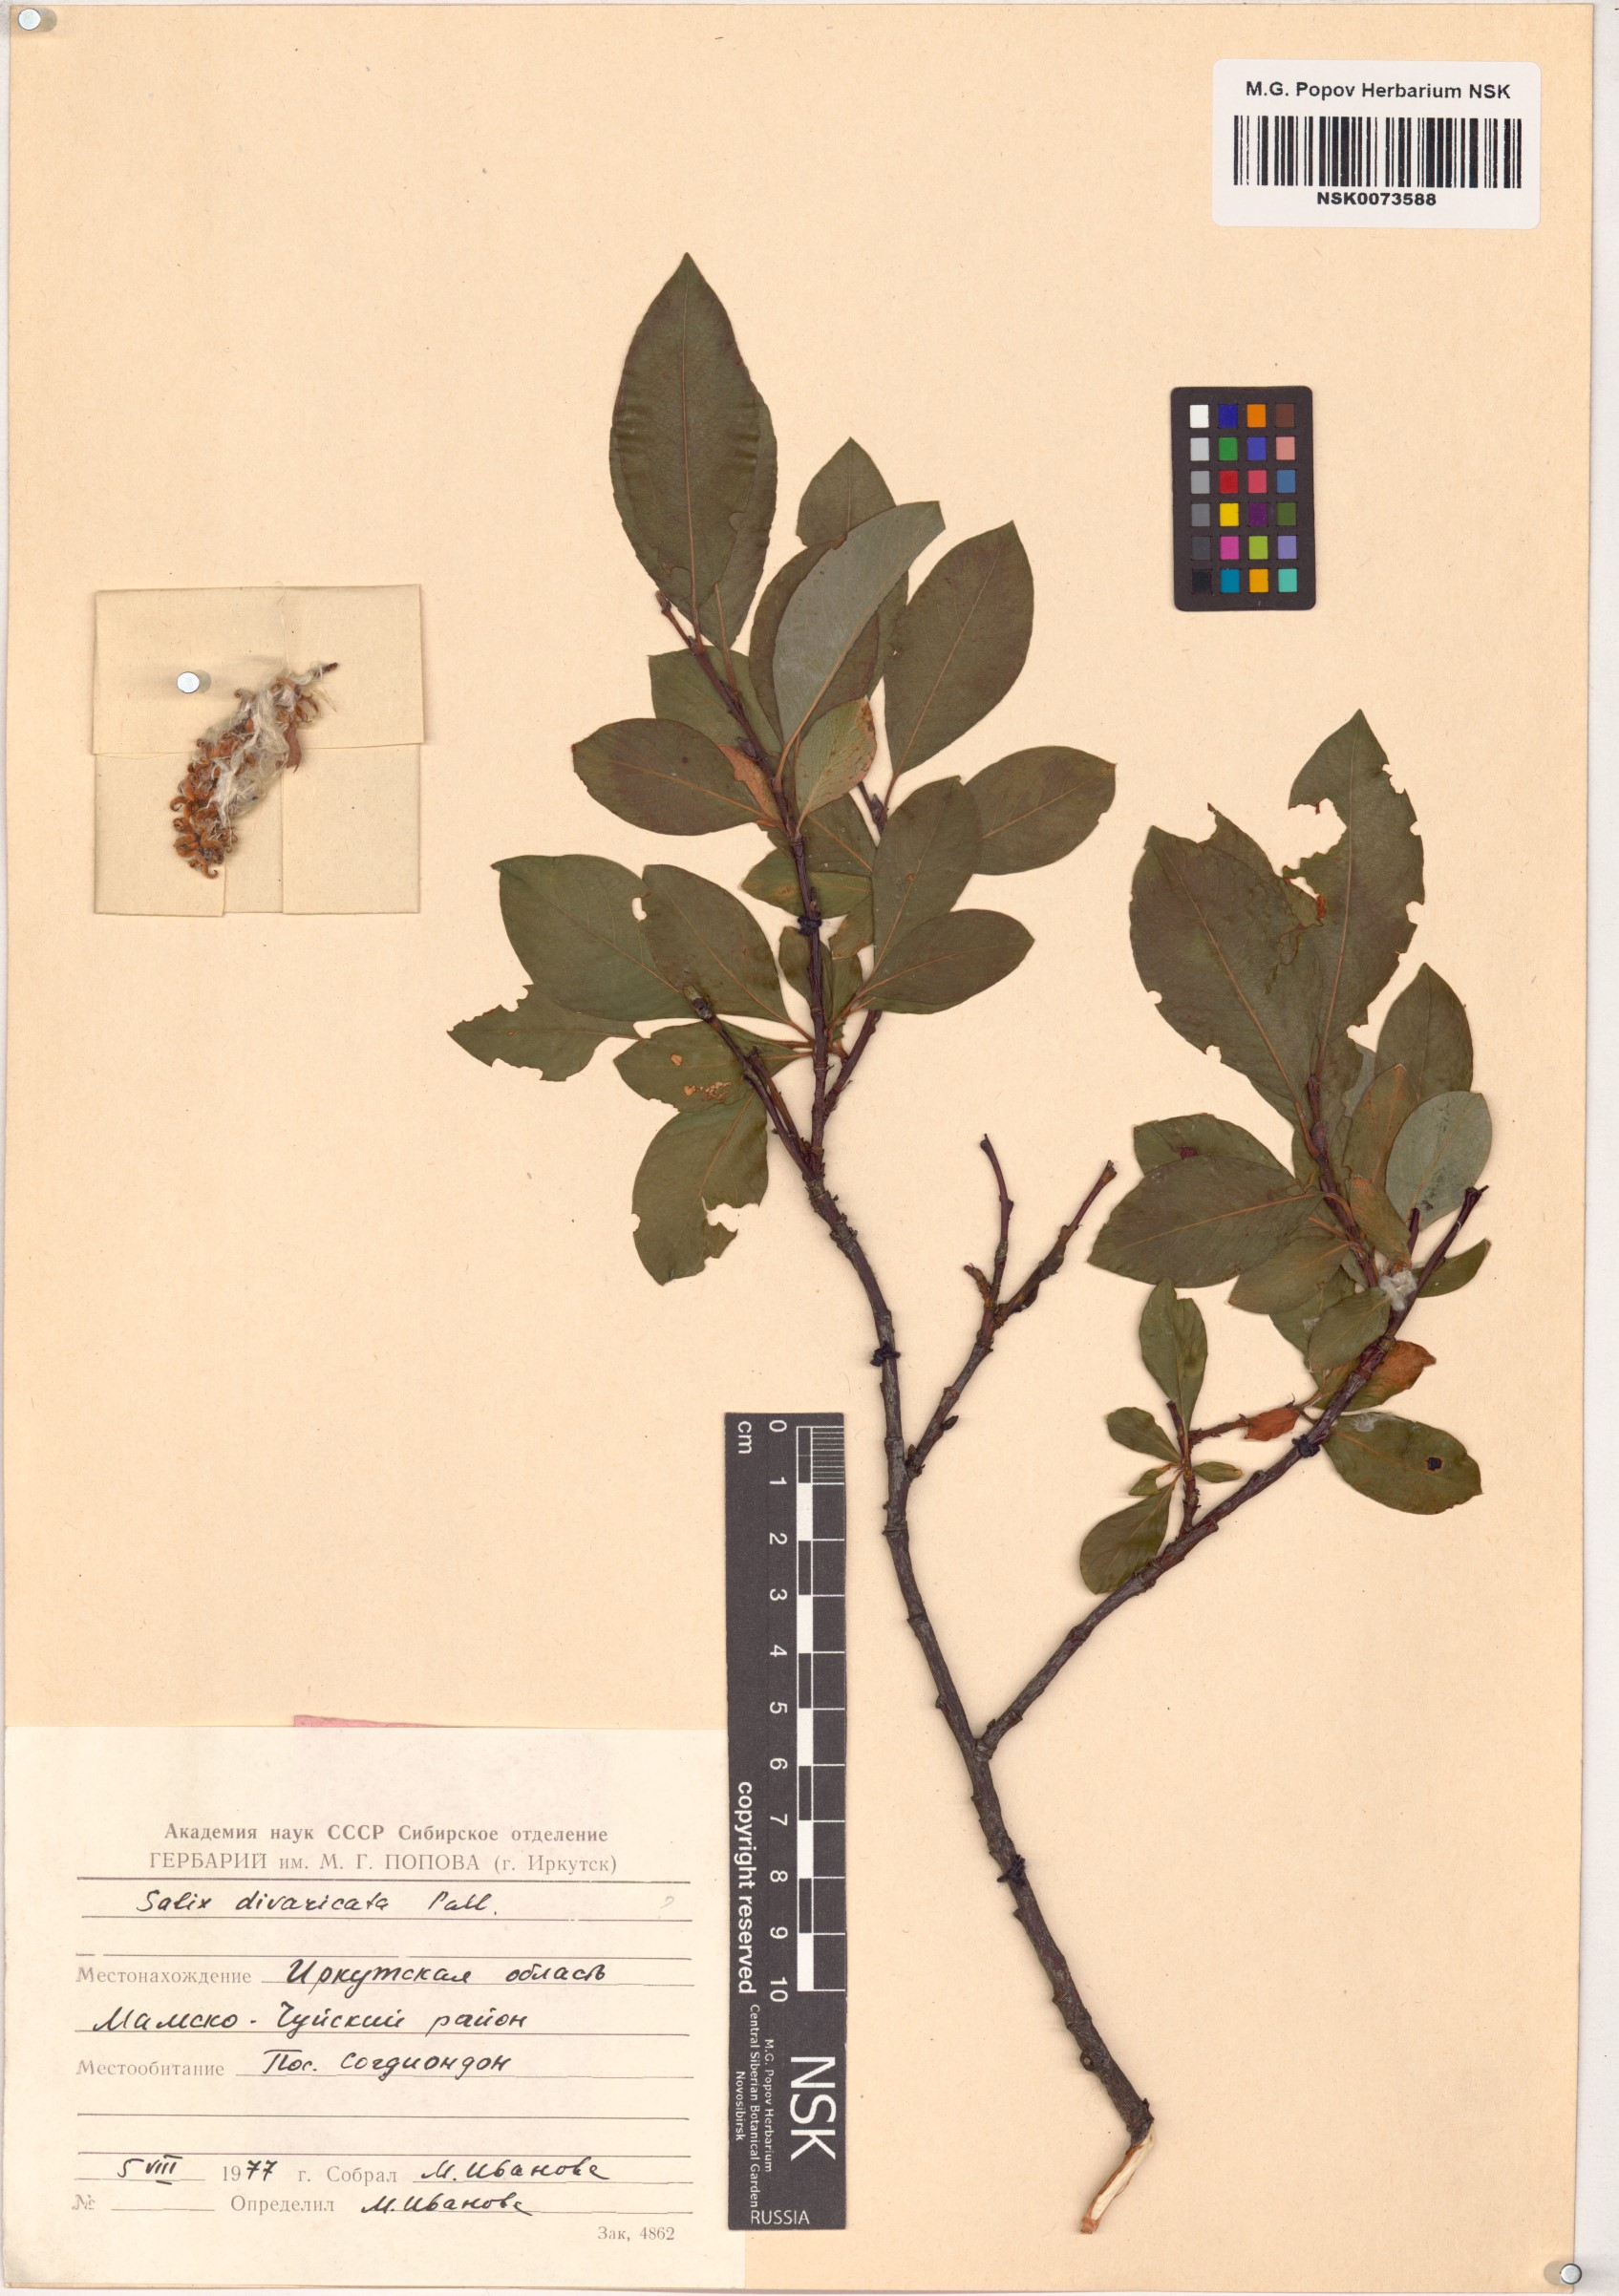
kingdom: Plantae
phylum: Tracheophyta
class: Magnoliopsida
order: Malpighiales
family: Salicaceae
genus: Salix
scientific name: Salix divaricata
